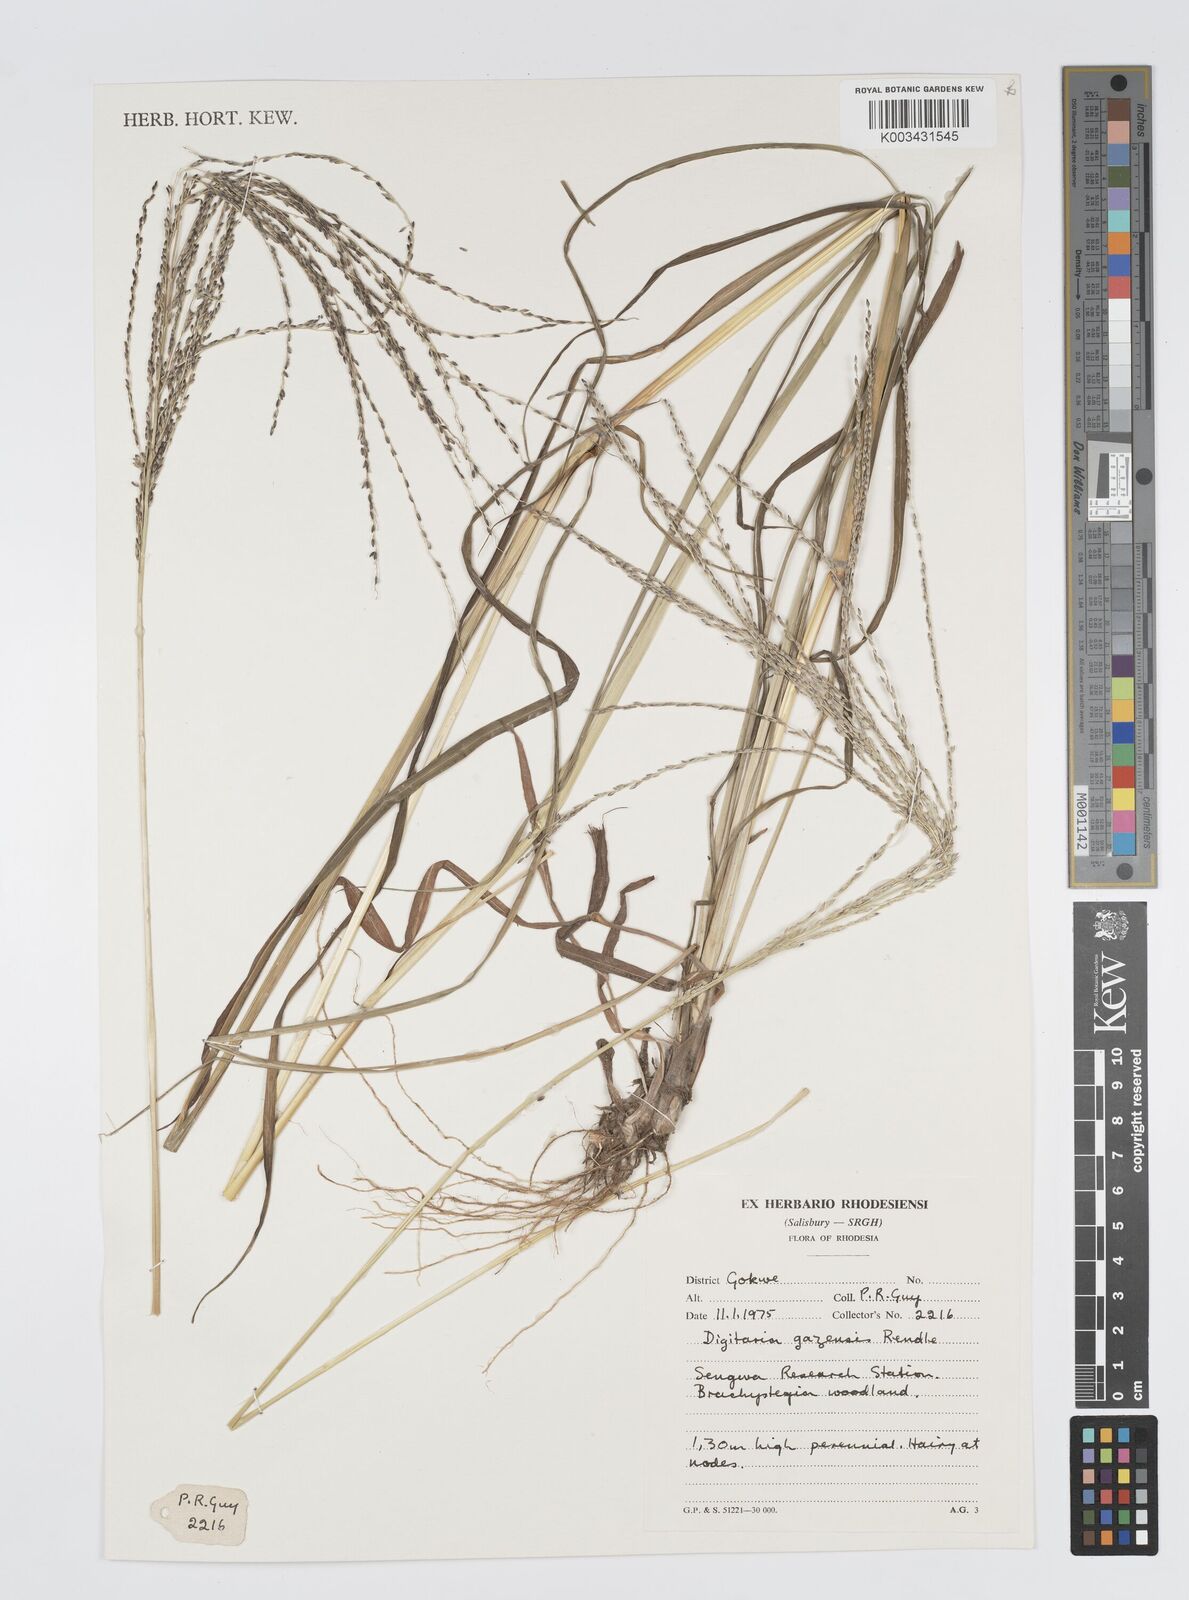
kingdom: Plantae
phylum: Tracheophyta
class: Liliopsida
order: Poales
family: Poaceae
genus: Digitaria
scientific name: Digitaria gazensis
